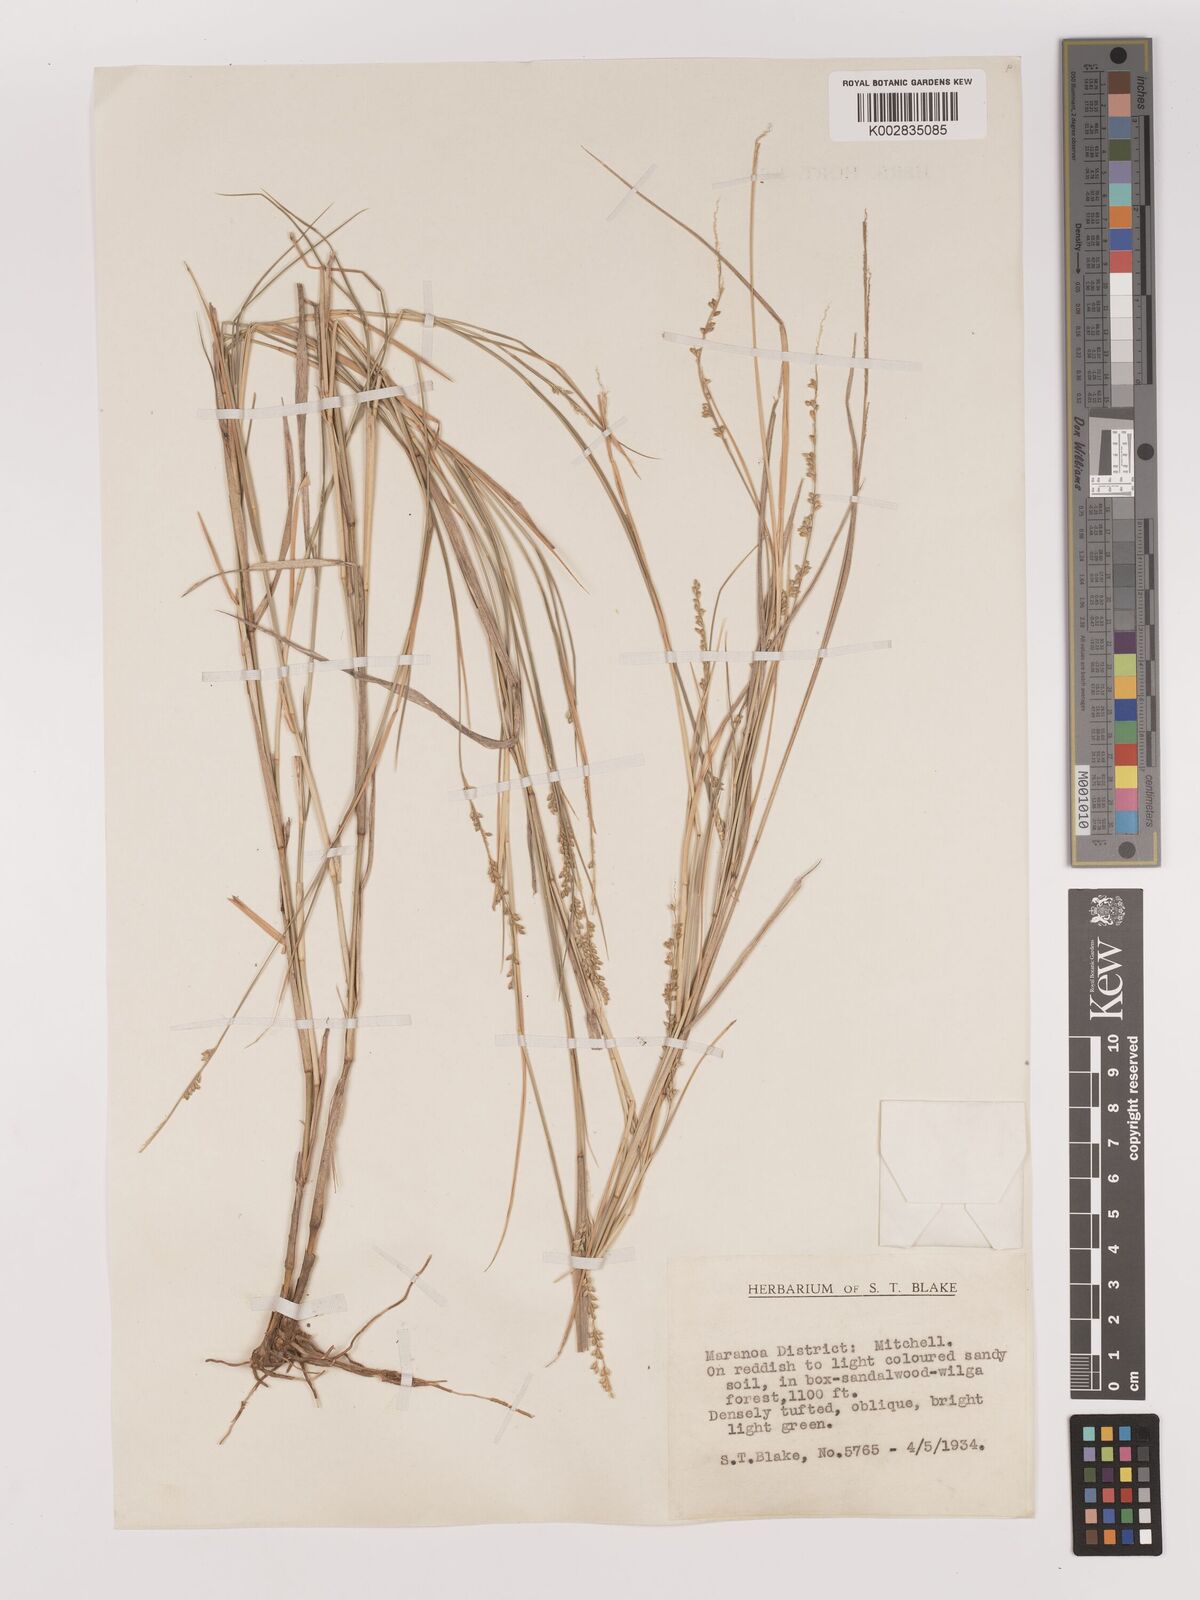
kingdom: Plantae
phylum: Tracheophyta
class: Liliopsida
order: Poales
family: Poaceae
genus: Setaria
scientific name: Setaria
